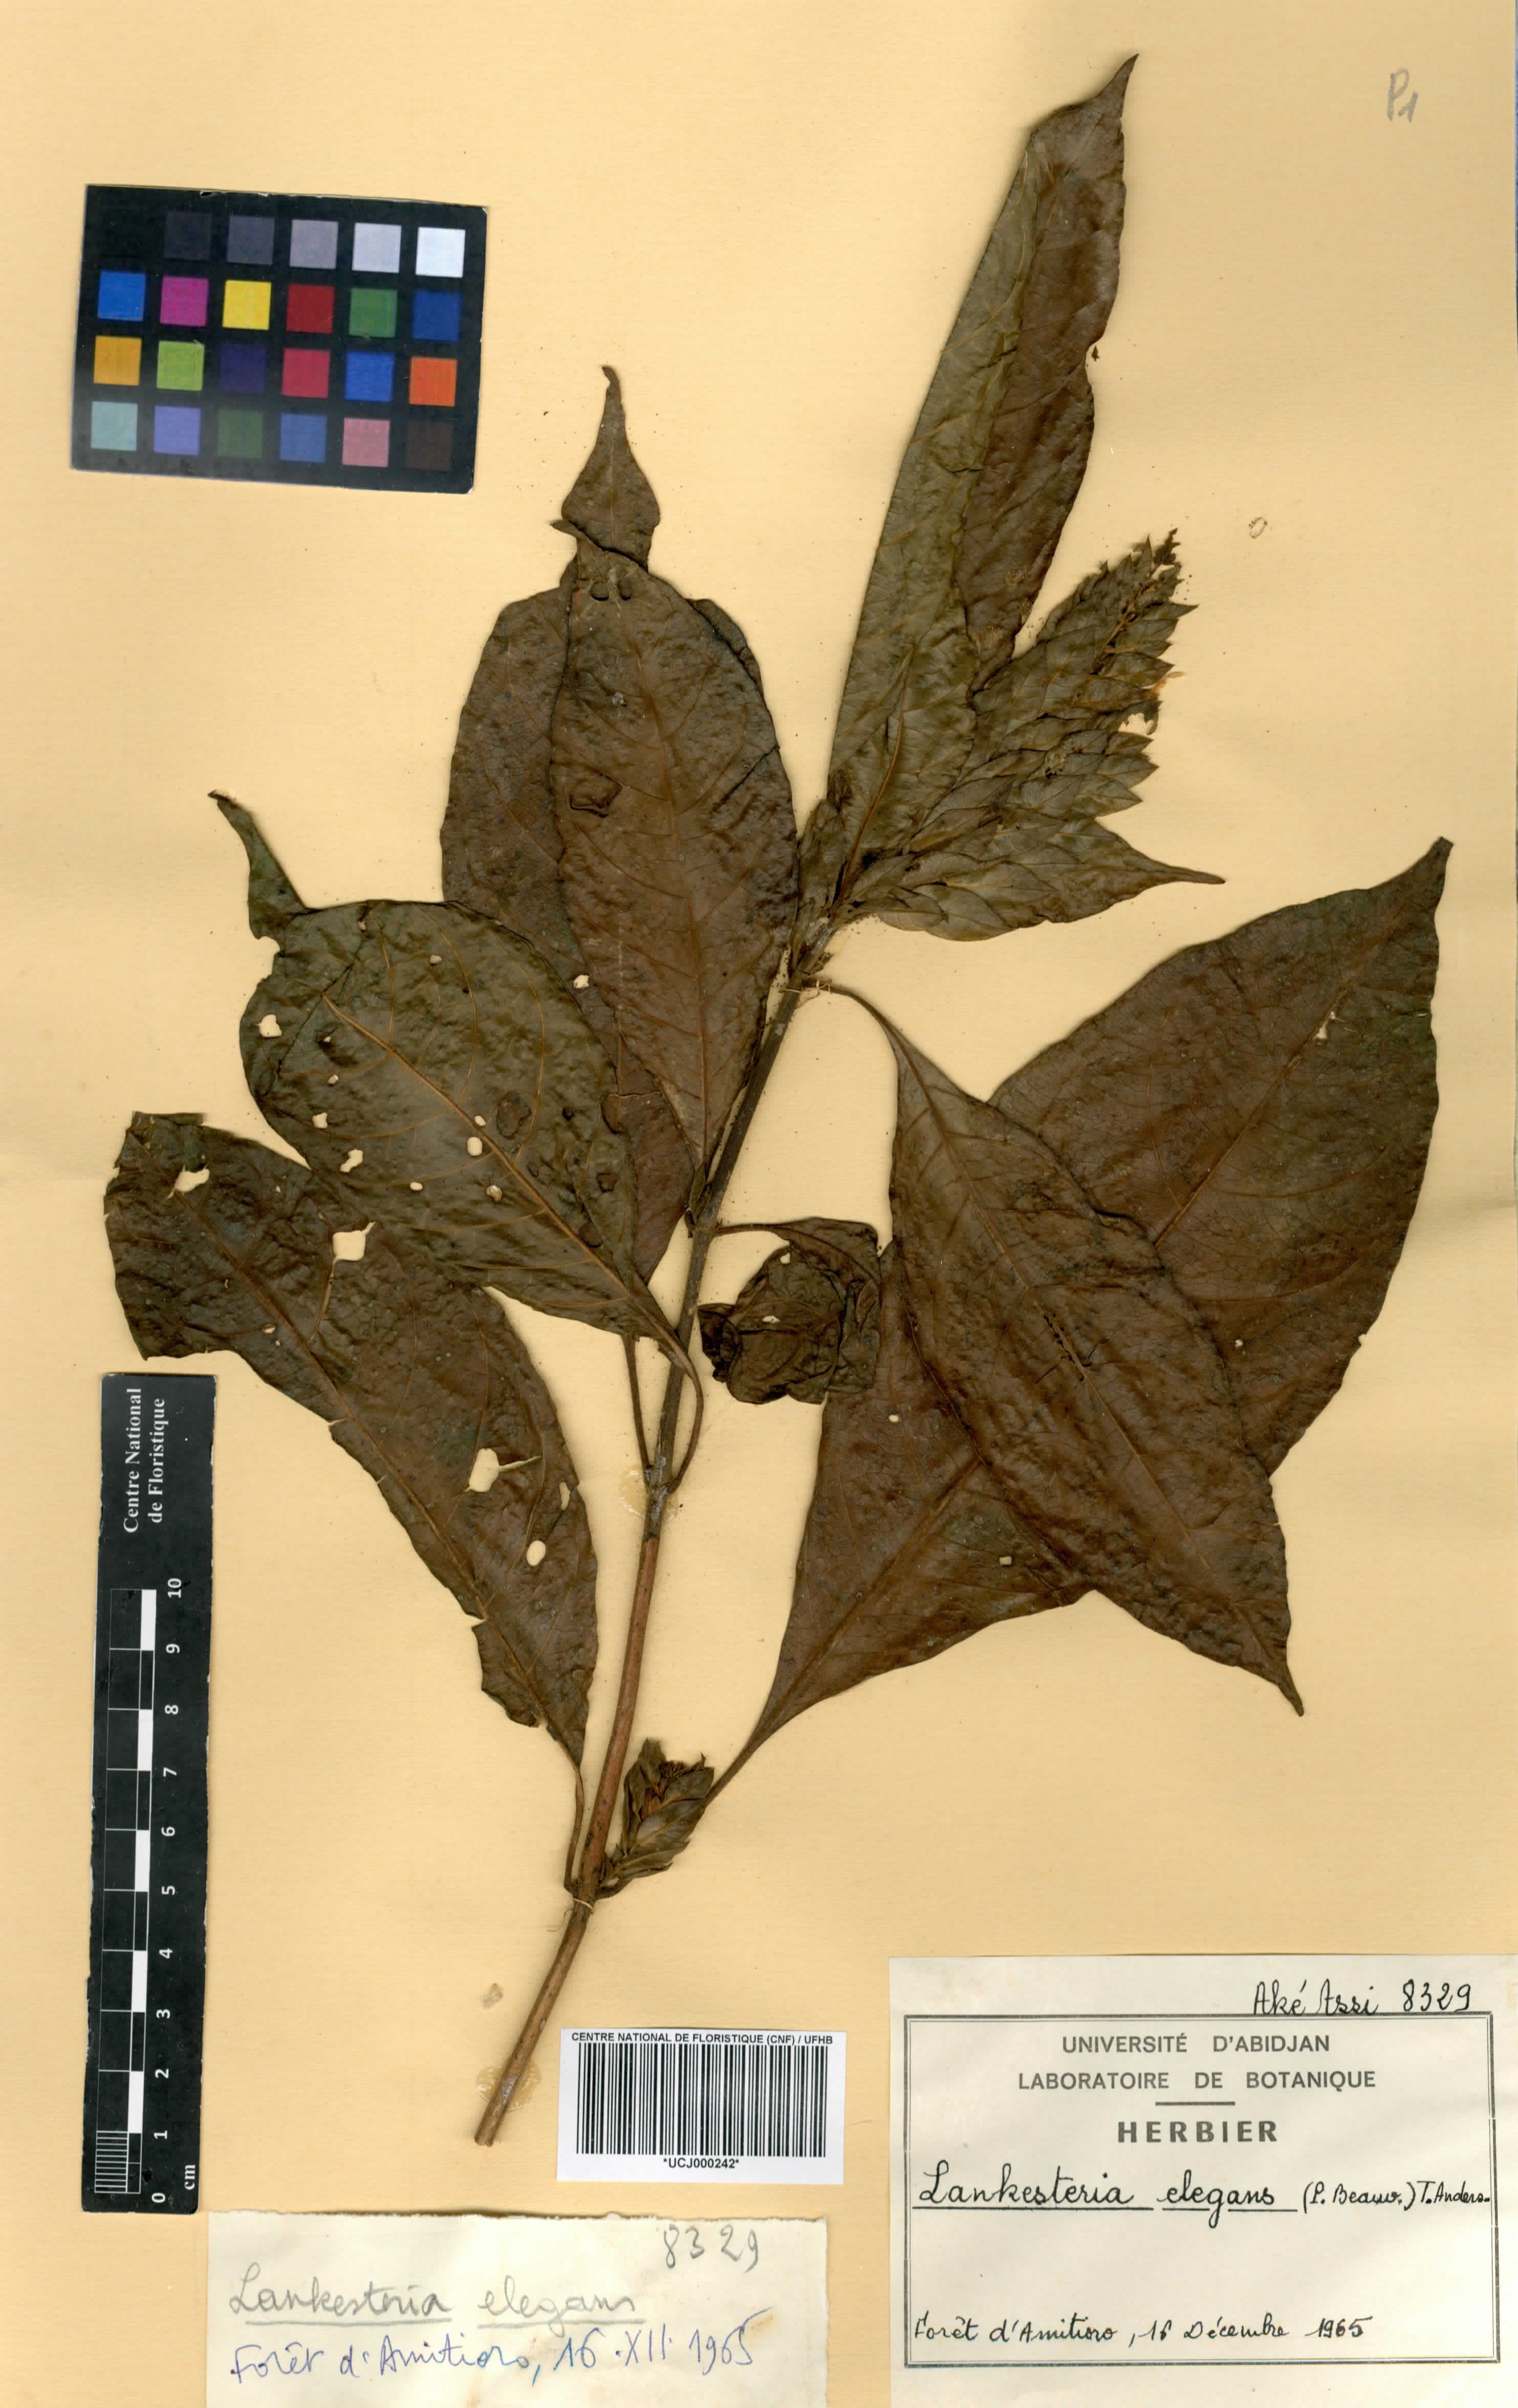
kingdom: Plantae
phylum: Tracheophyta
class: Magnoliopsida
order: Lamiales
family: Acanthaceae
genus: Lankesteria
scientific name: Lankesteria elegans
